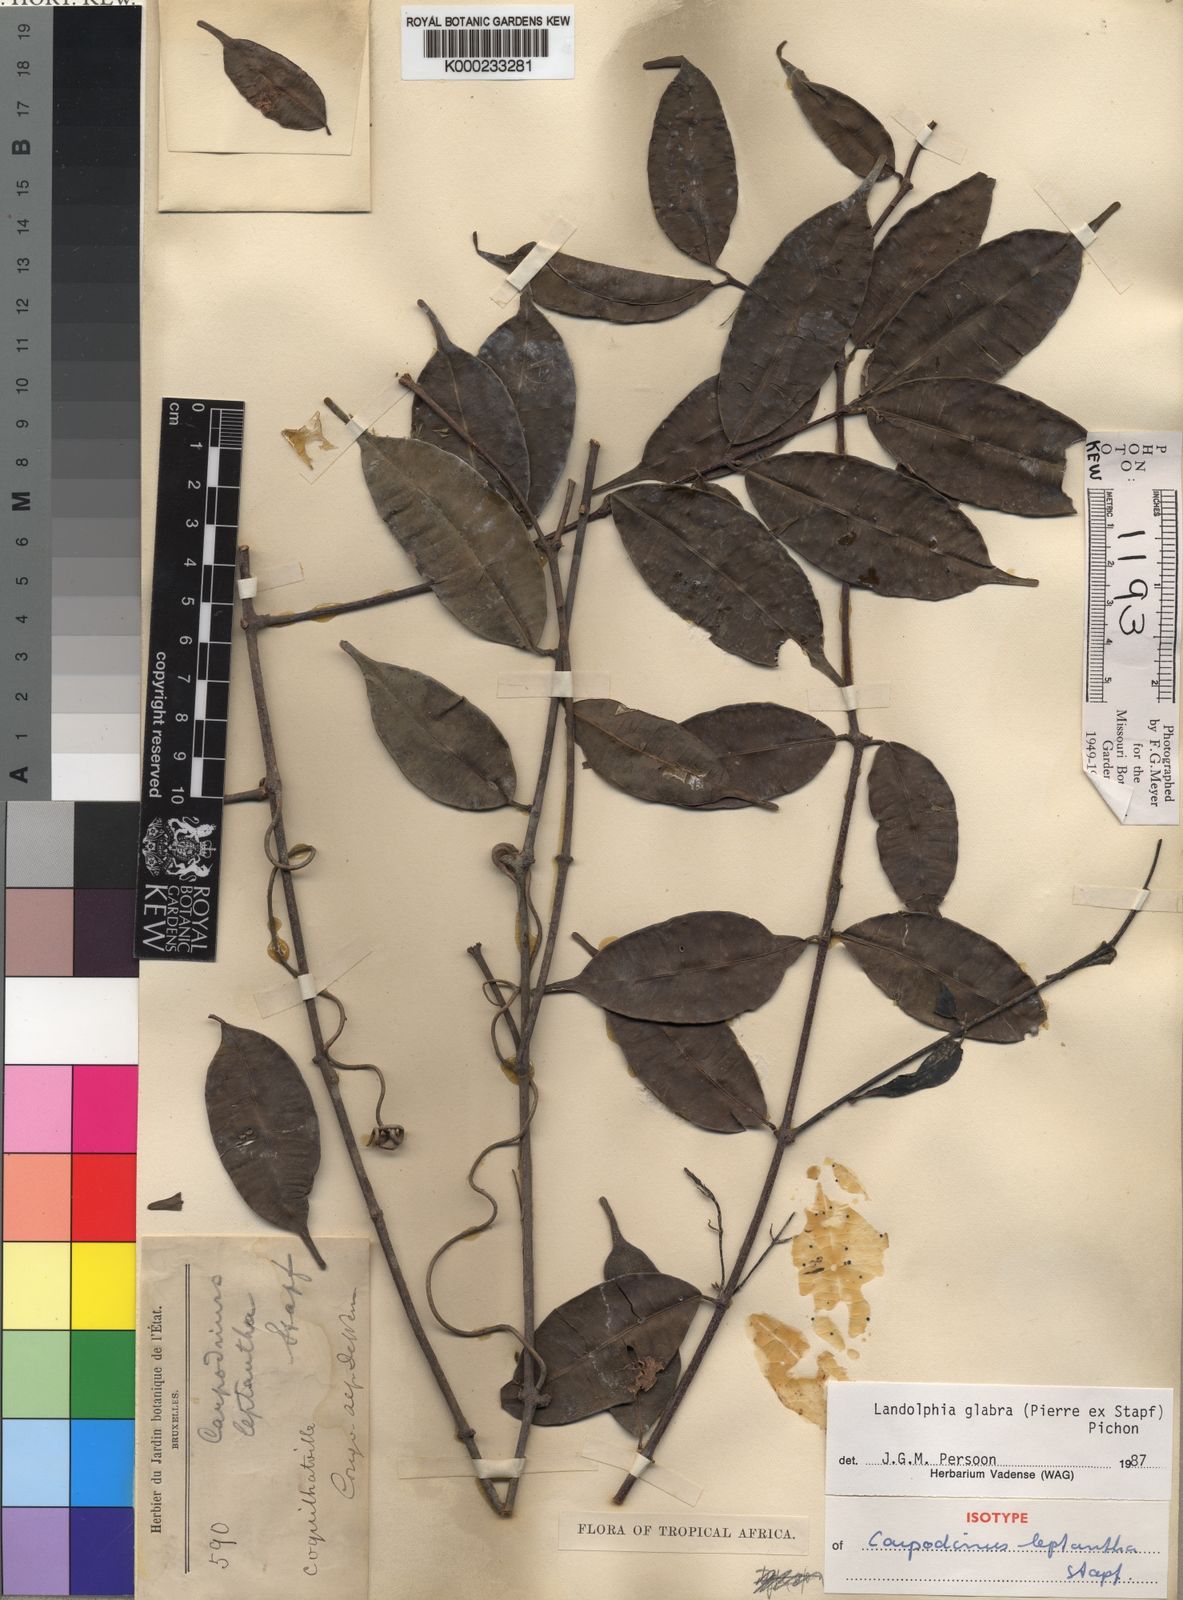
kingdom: Plantae
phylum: Tracheophyta
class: Magnoliopsida
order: Gentianales
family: Apocynaceae
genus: Landolphia
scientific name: Landolphia glabra
